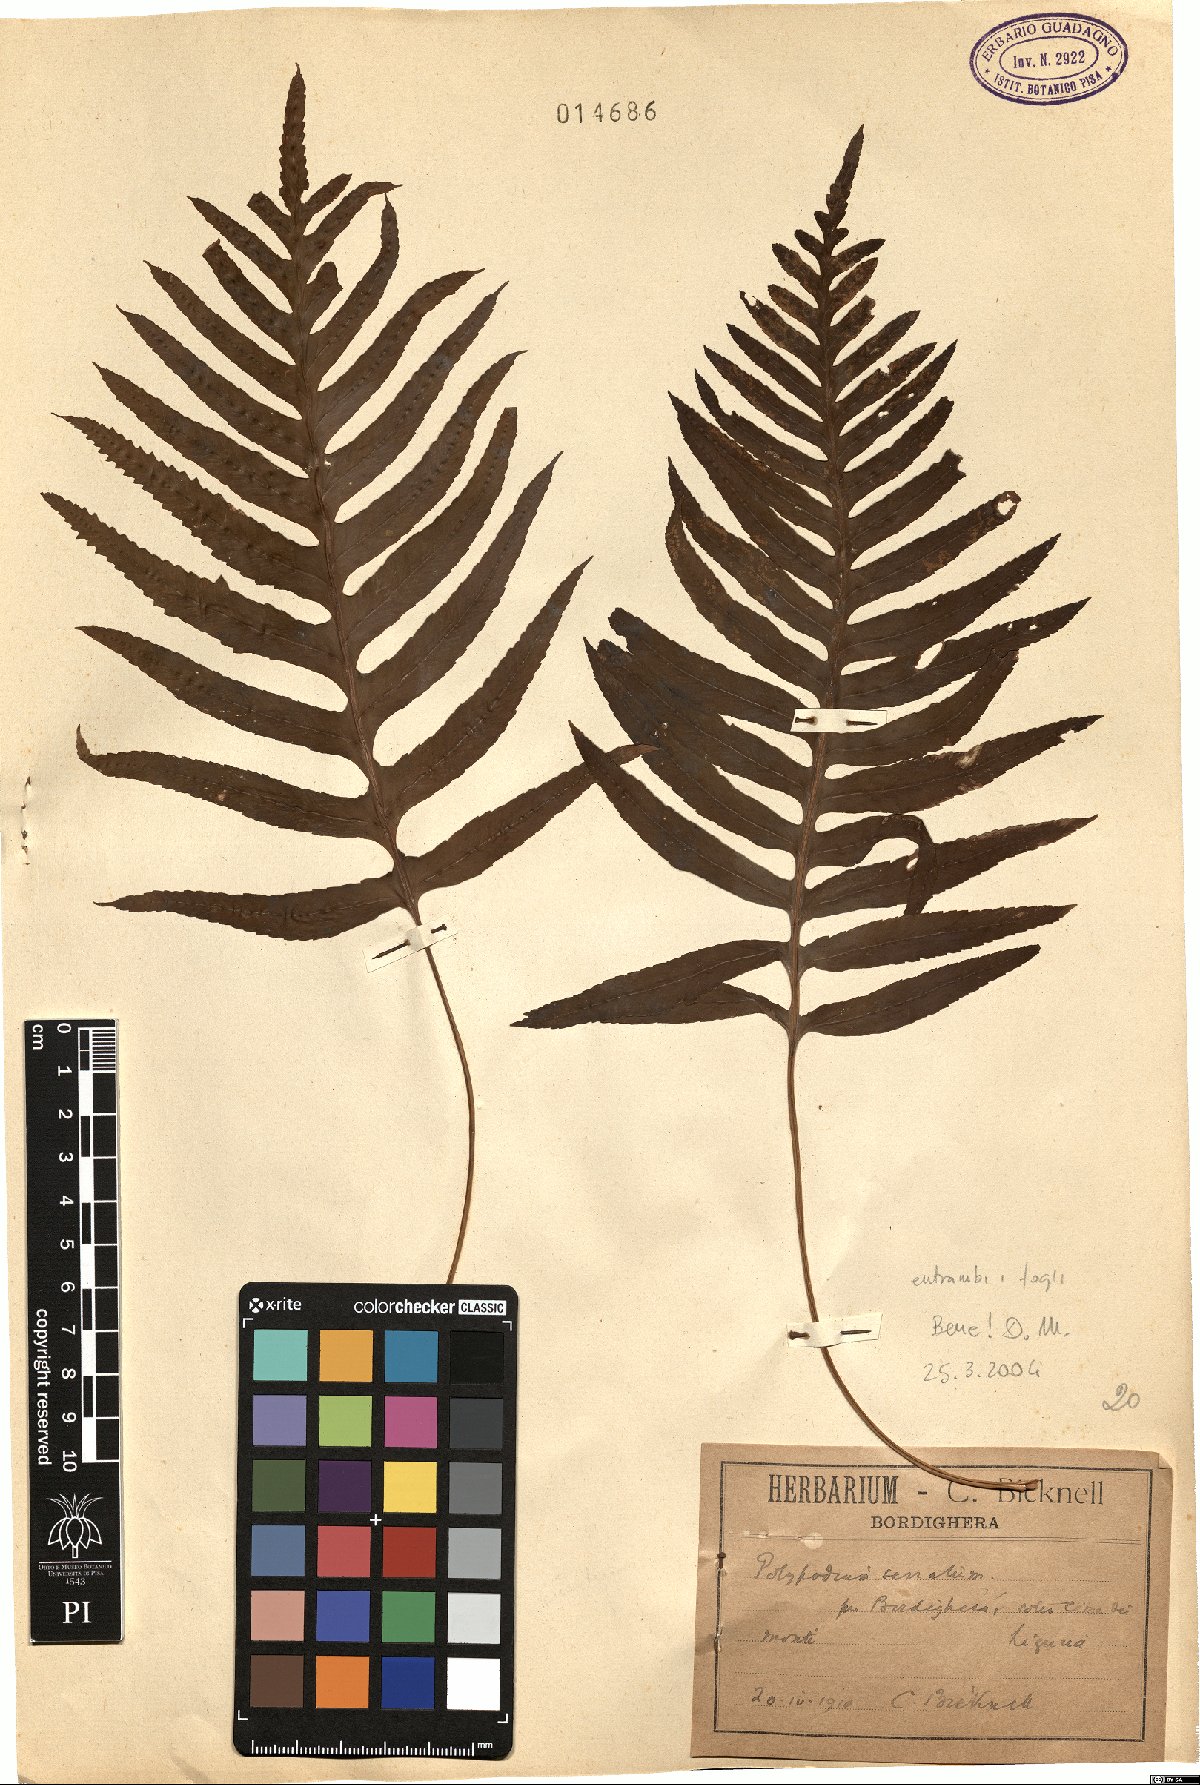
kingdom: Plantae
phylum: Tracheophyta
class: Polypodiopsida
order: Polypodiales
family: Polypodiaceae
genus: Polypodium
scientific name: Polypodium cambricum
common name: Southern polypody
